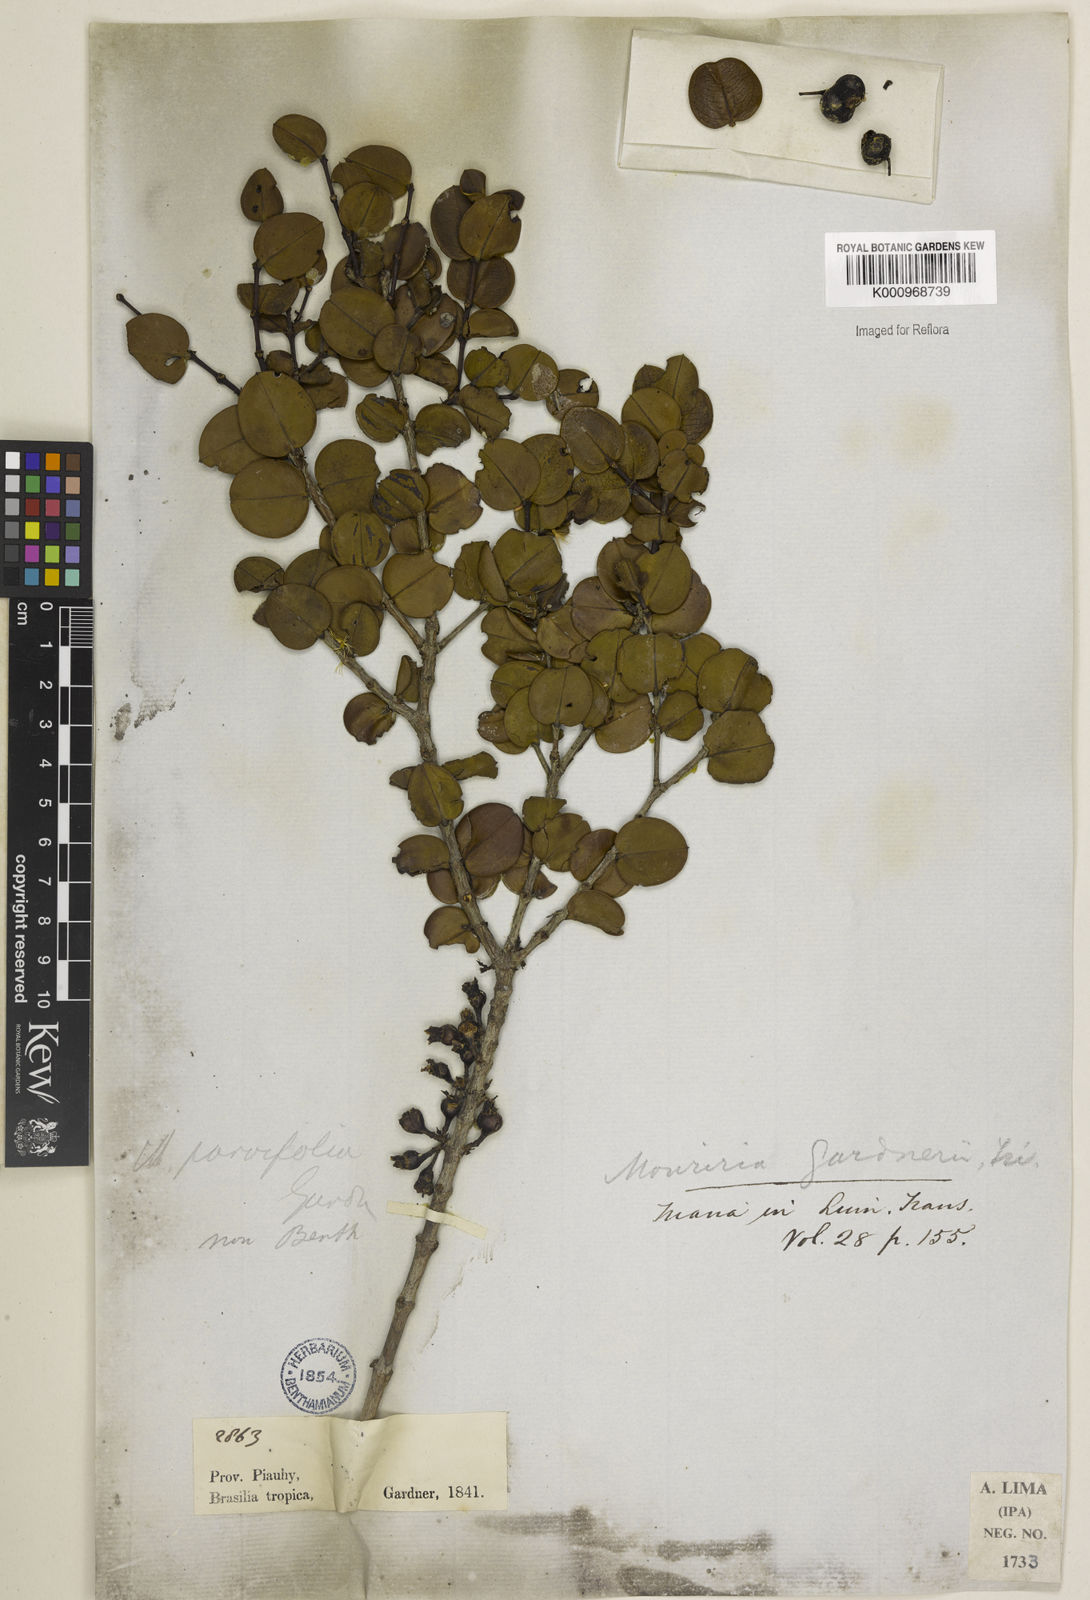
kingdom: Plantae
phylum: Tracheophyta
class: Magnoliopsida
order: Myrtales
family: Melastomataceae
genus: Mouriri
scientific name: Mouriri gardneri
